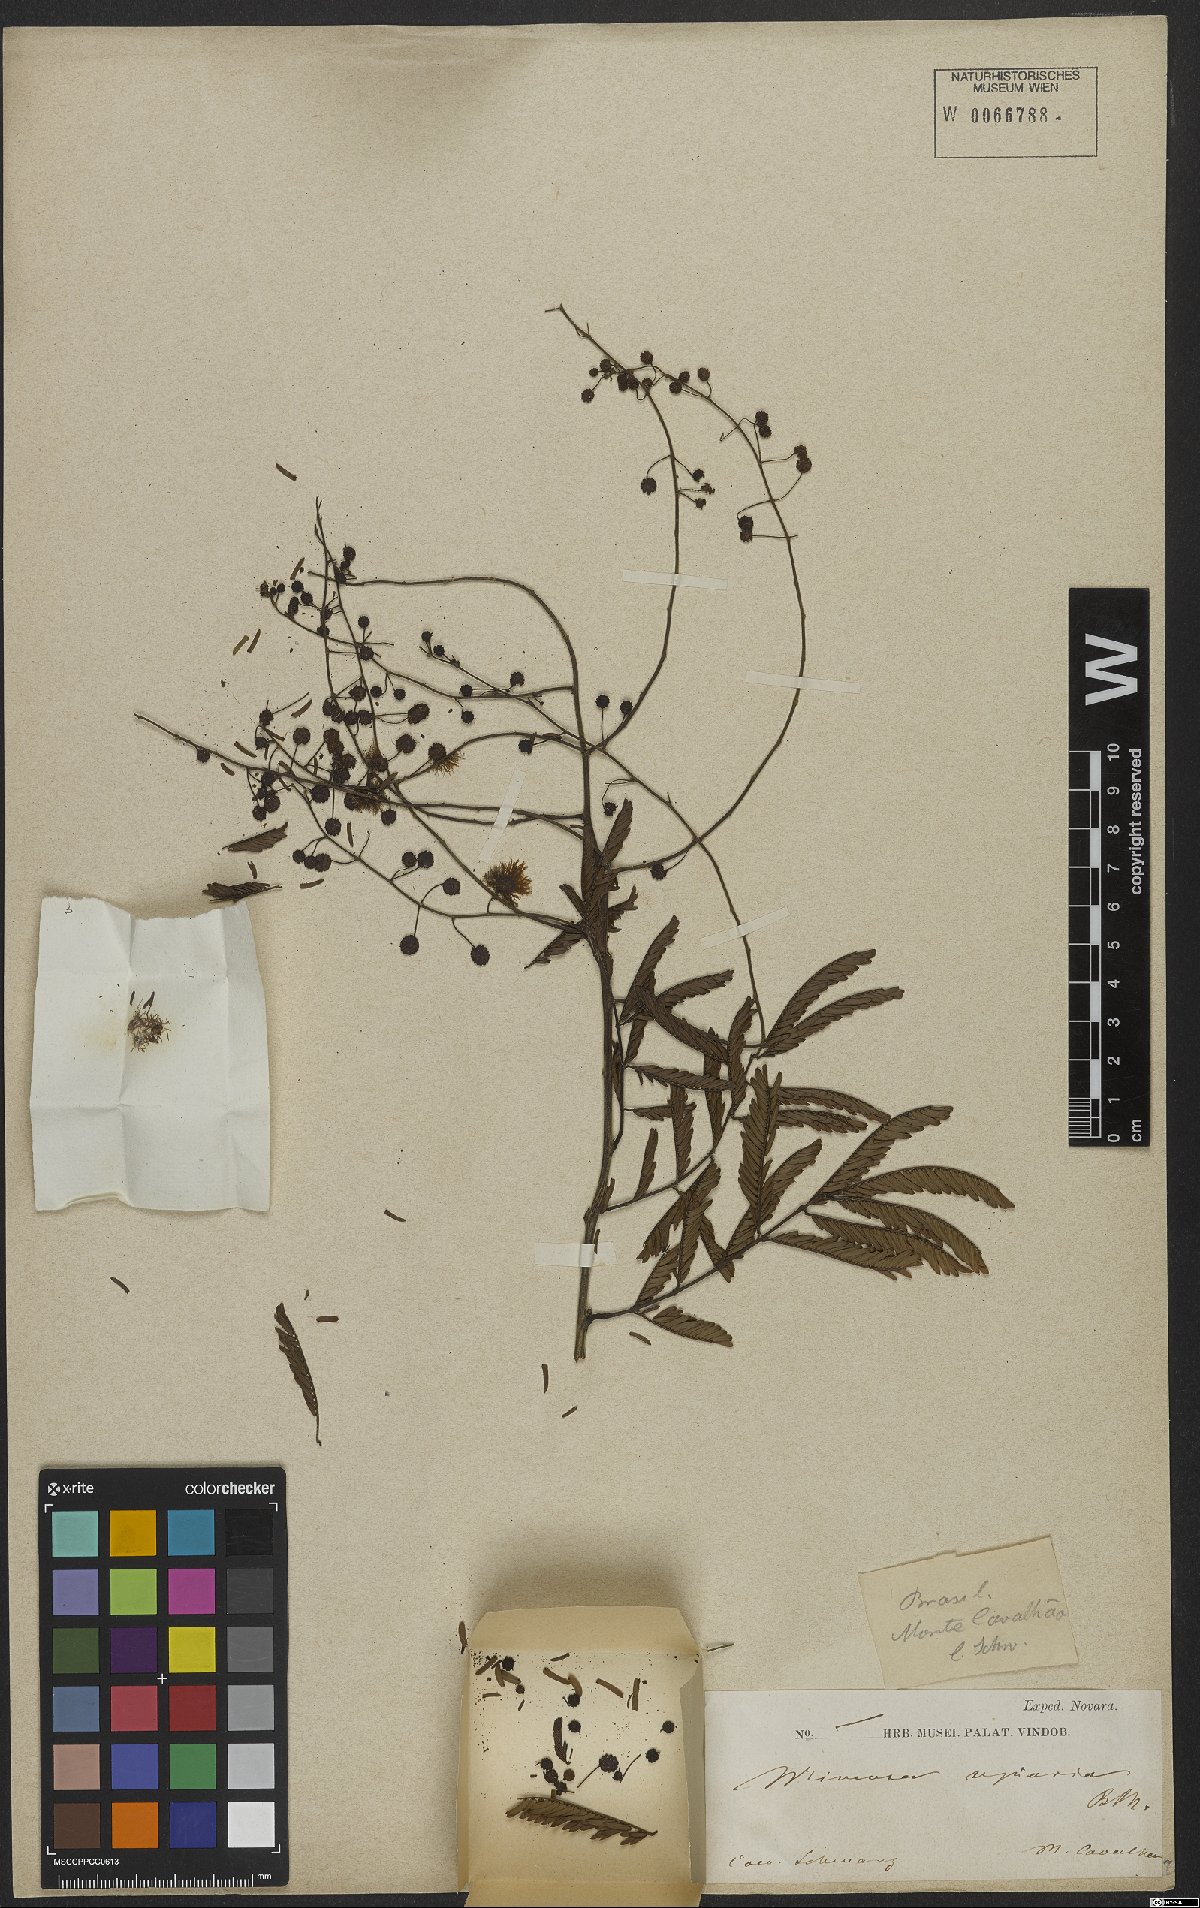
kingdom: Plantae
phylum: Tracheophyta
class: Magnoliopsida
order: Fabales
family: Fabaceae
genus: Mimosa
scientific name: Mimosa bimucronata
